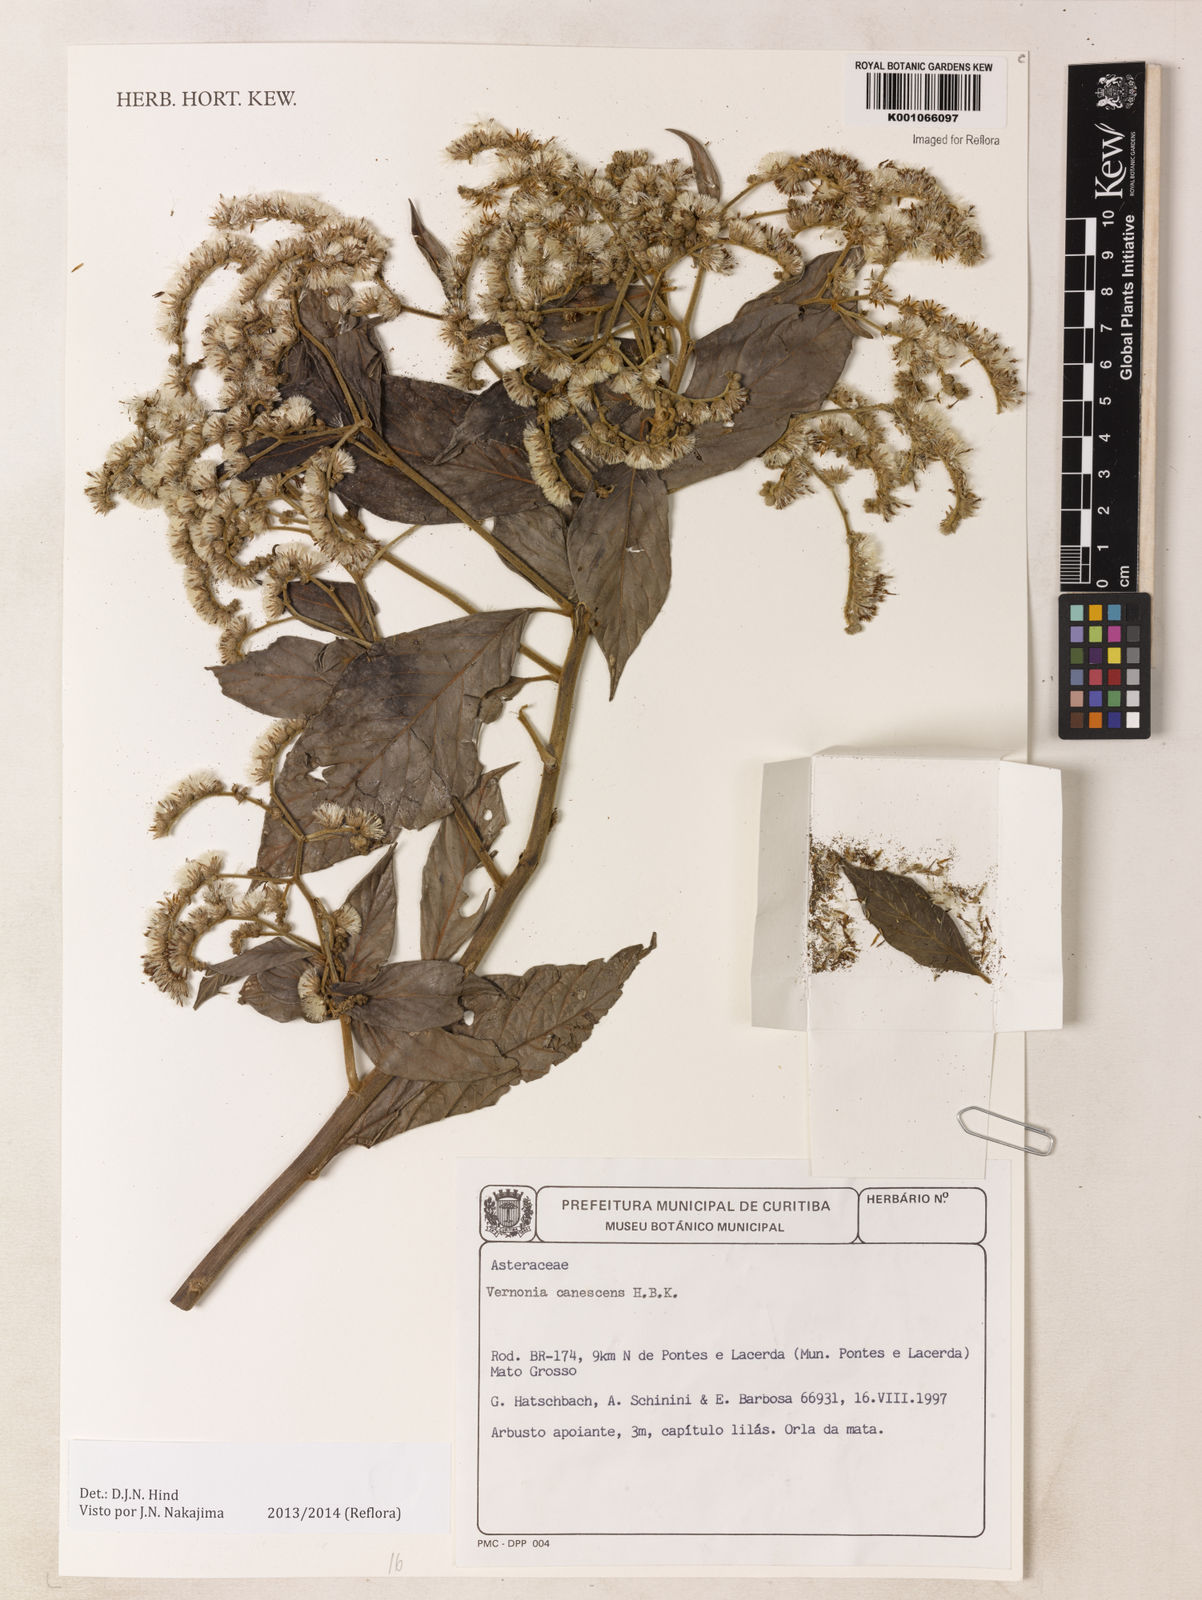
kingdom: Plantae
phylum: Tracheophyta
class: Magnoliopsida
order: Asterales
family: Asteraceae
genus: Lepidaploa
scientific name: Lepidaploa canescens
